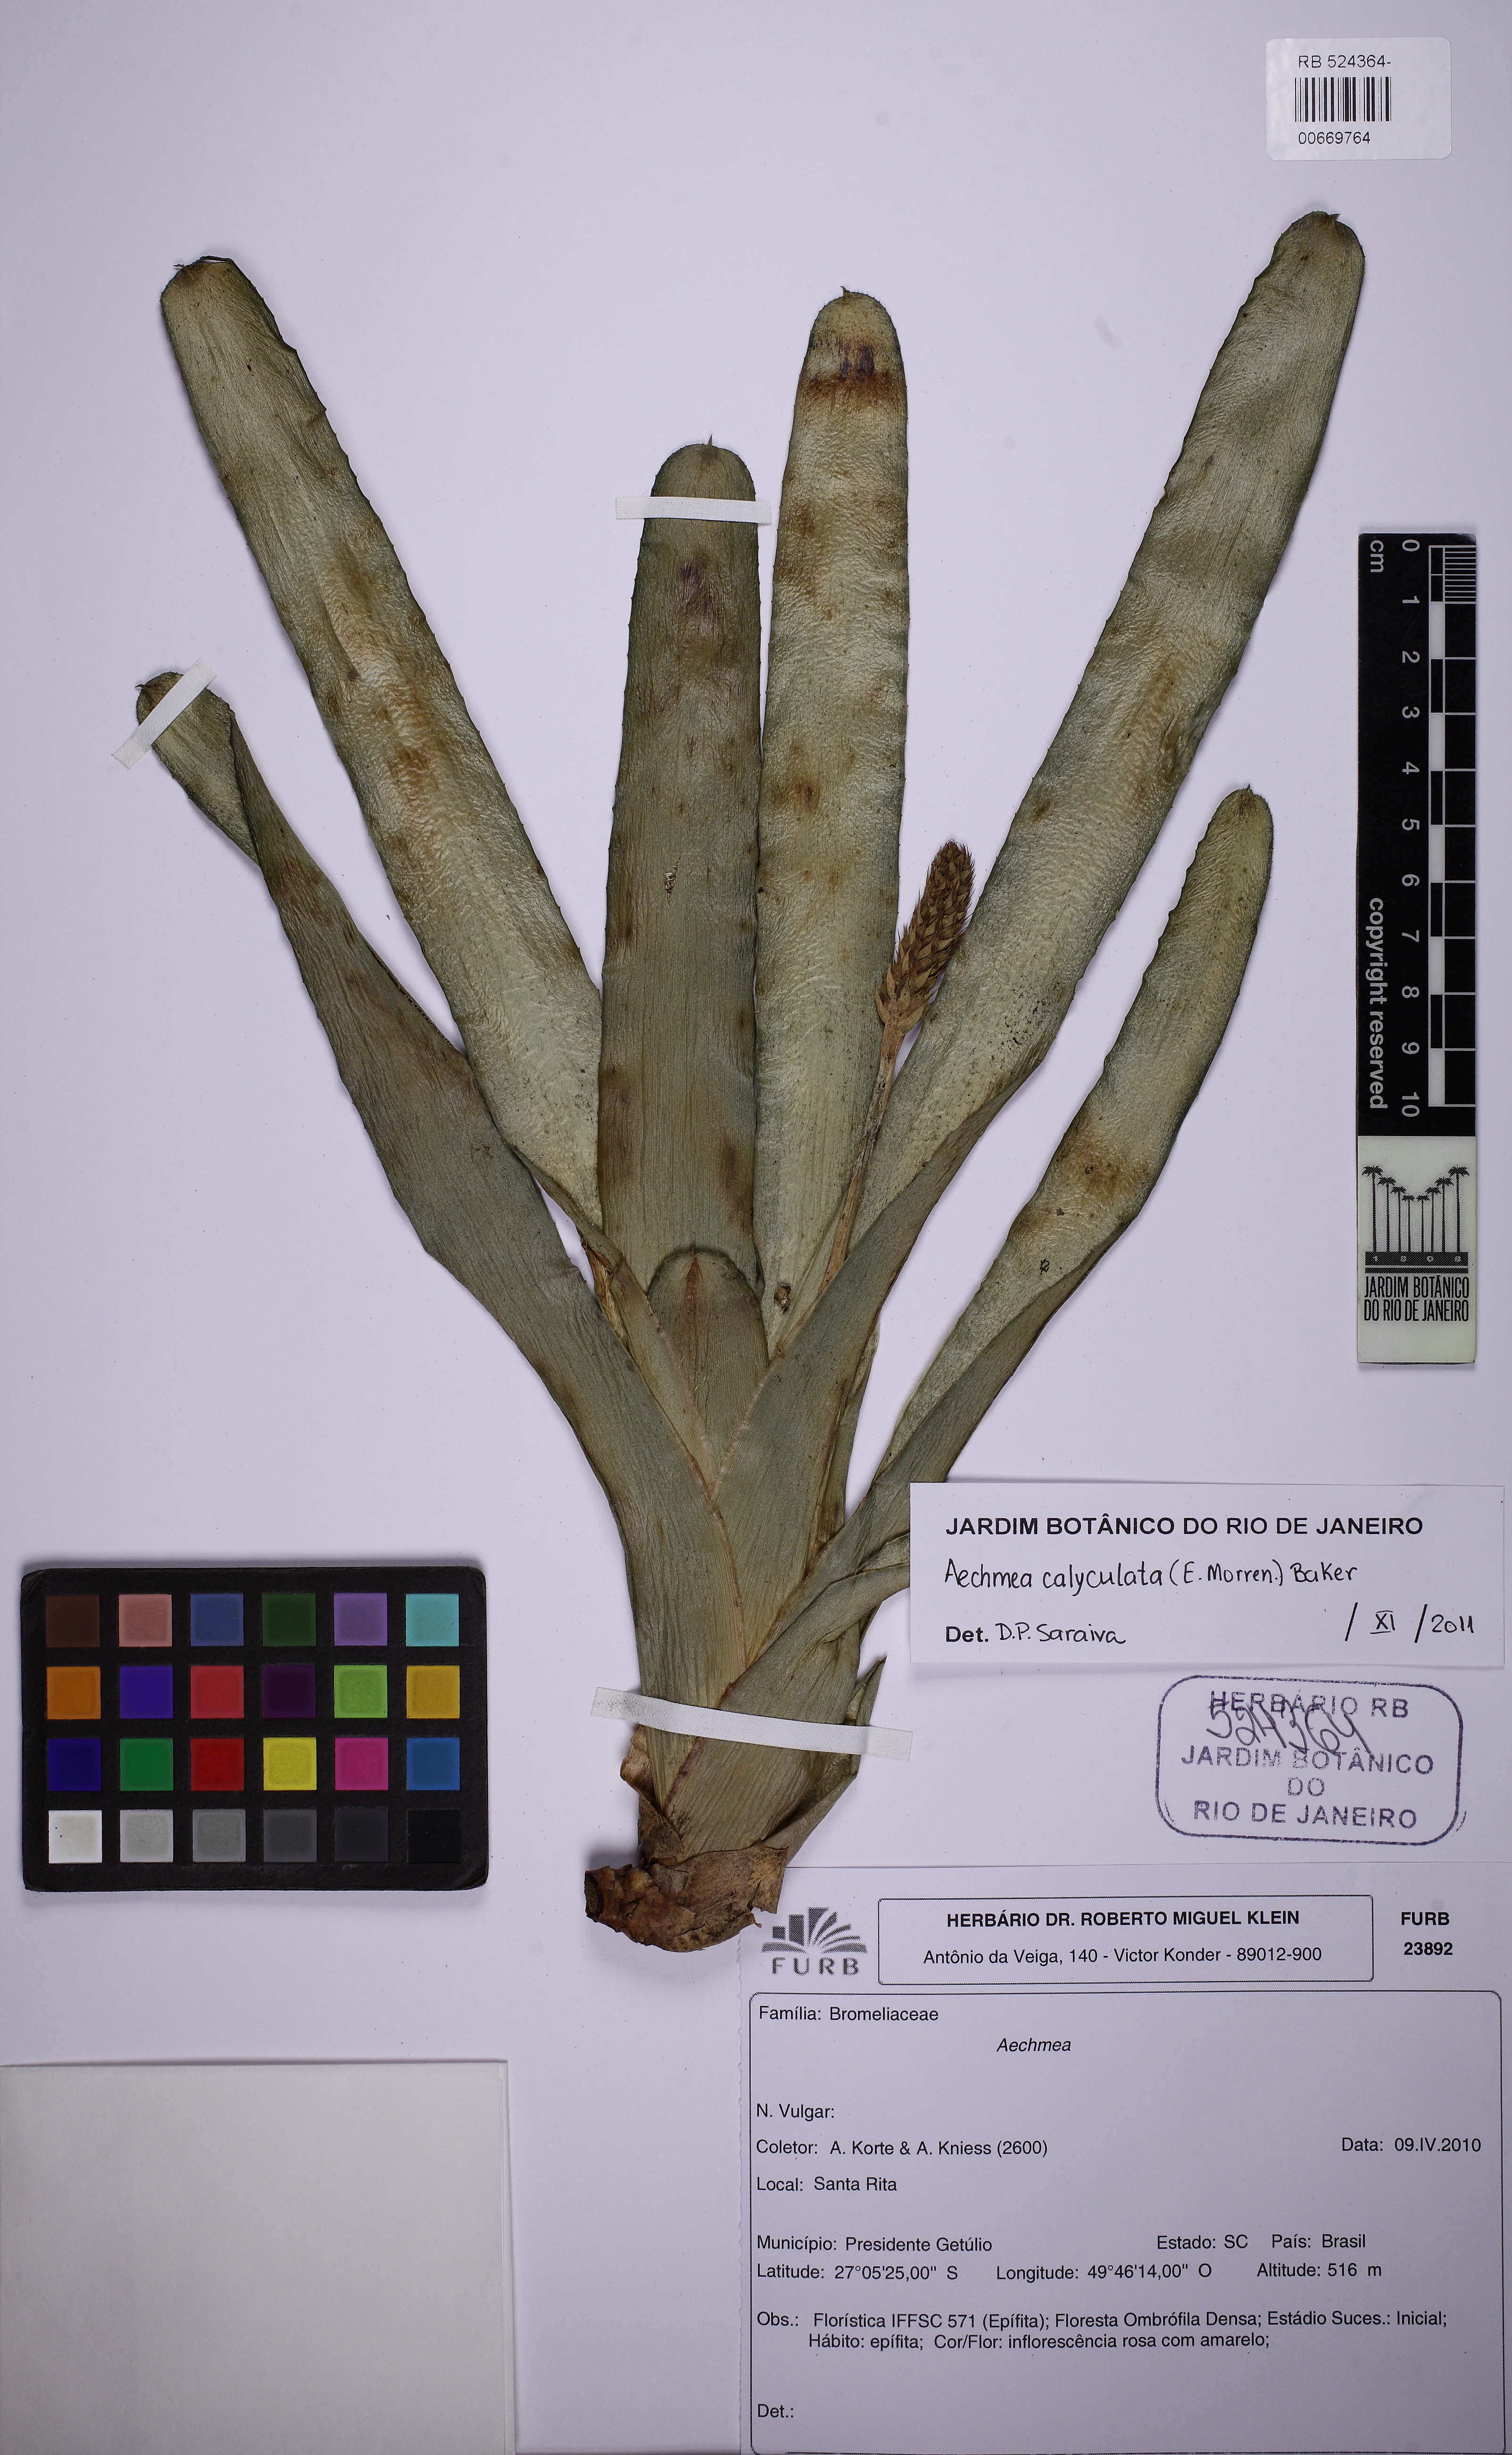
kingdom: Plantae
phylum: Tracheophyta
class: Liliopsida
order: Poales
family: Bromeliaceae
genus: Aechmea
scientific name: Aechmea blumenavii
